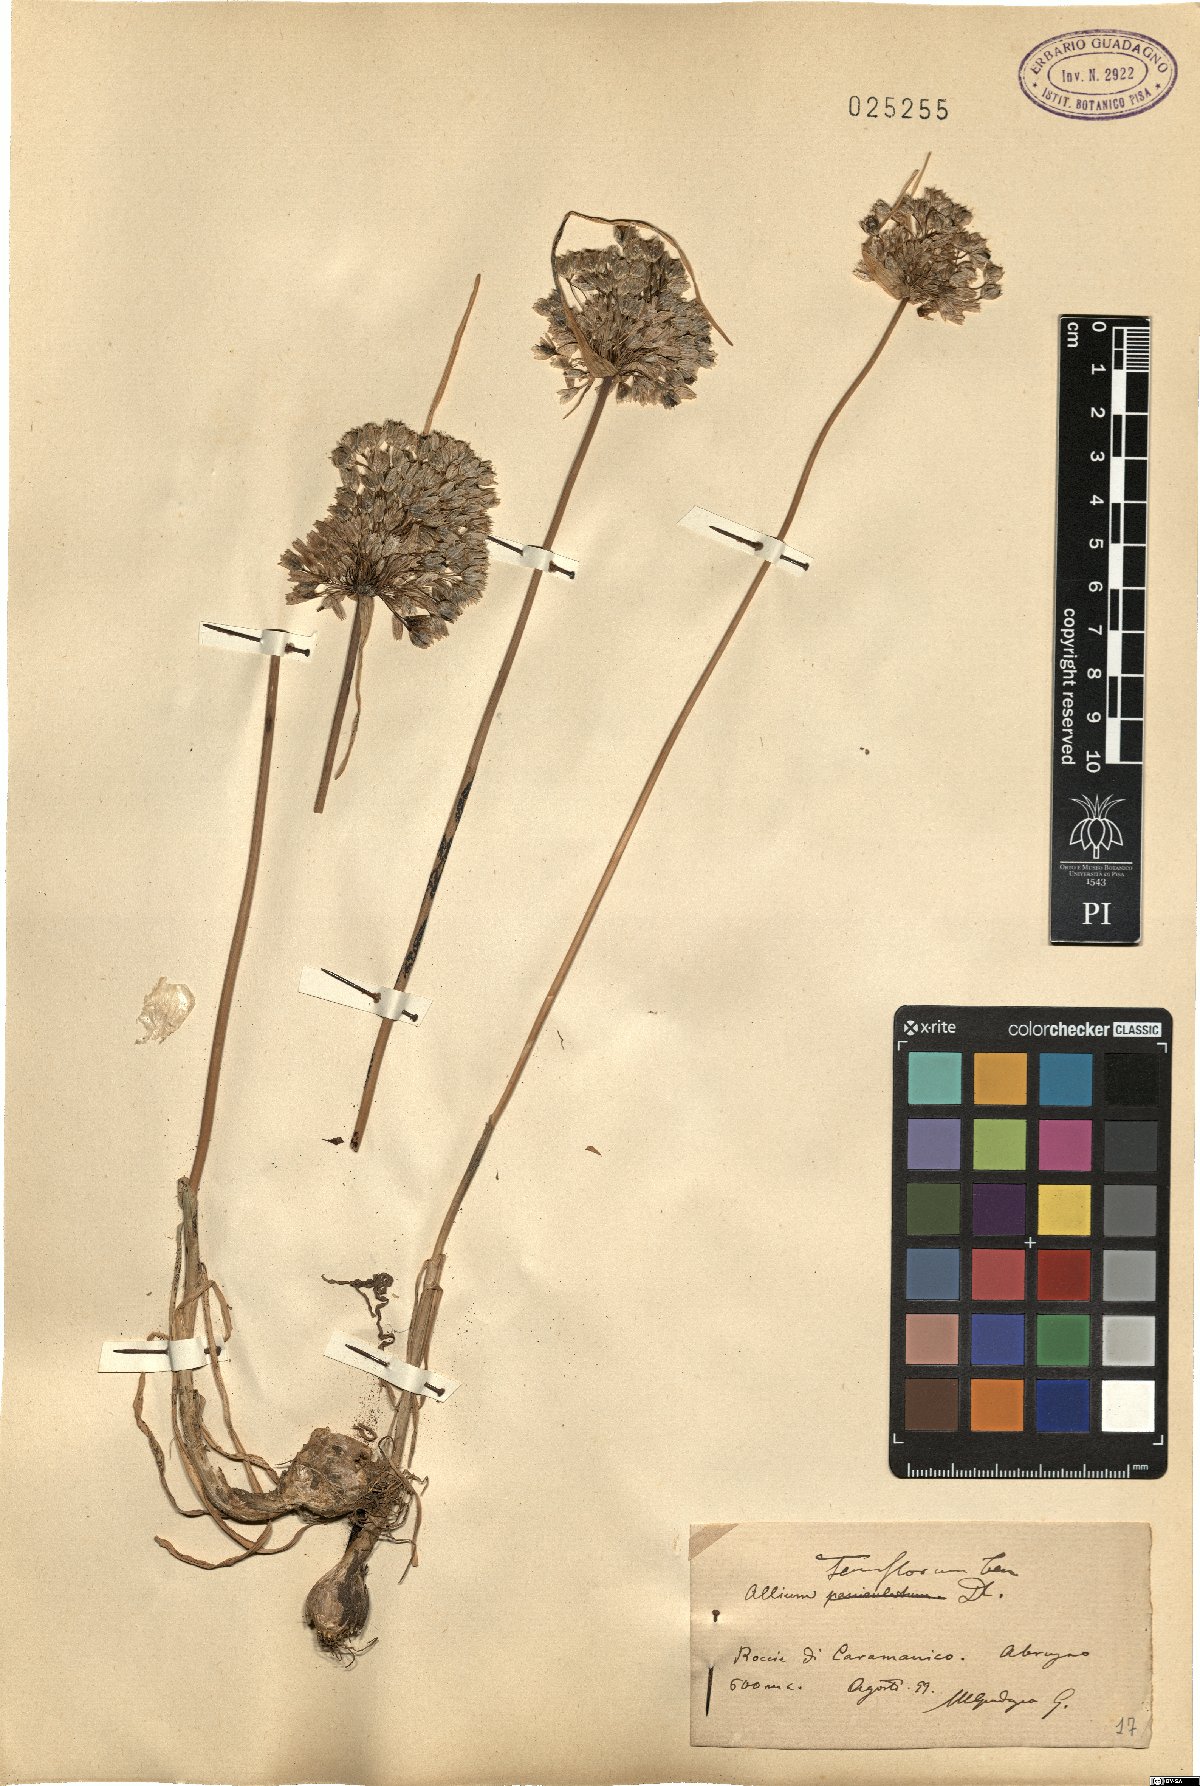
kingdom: Plantae
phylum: Tracheophyta
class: Liliopsida
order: Asparagales
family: Amaryllidaceae
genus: Allium
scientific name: Allium tenuiflorum
